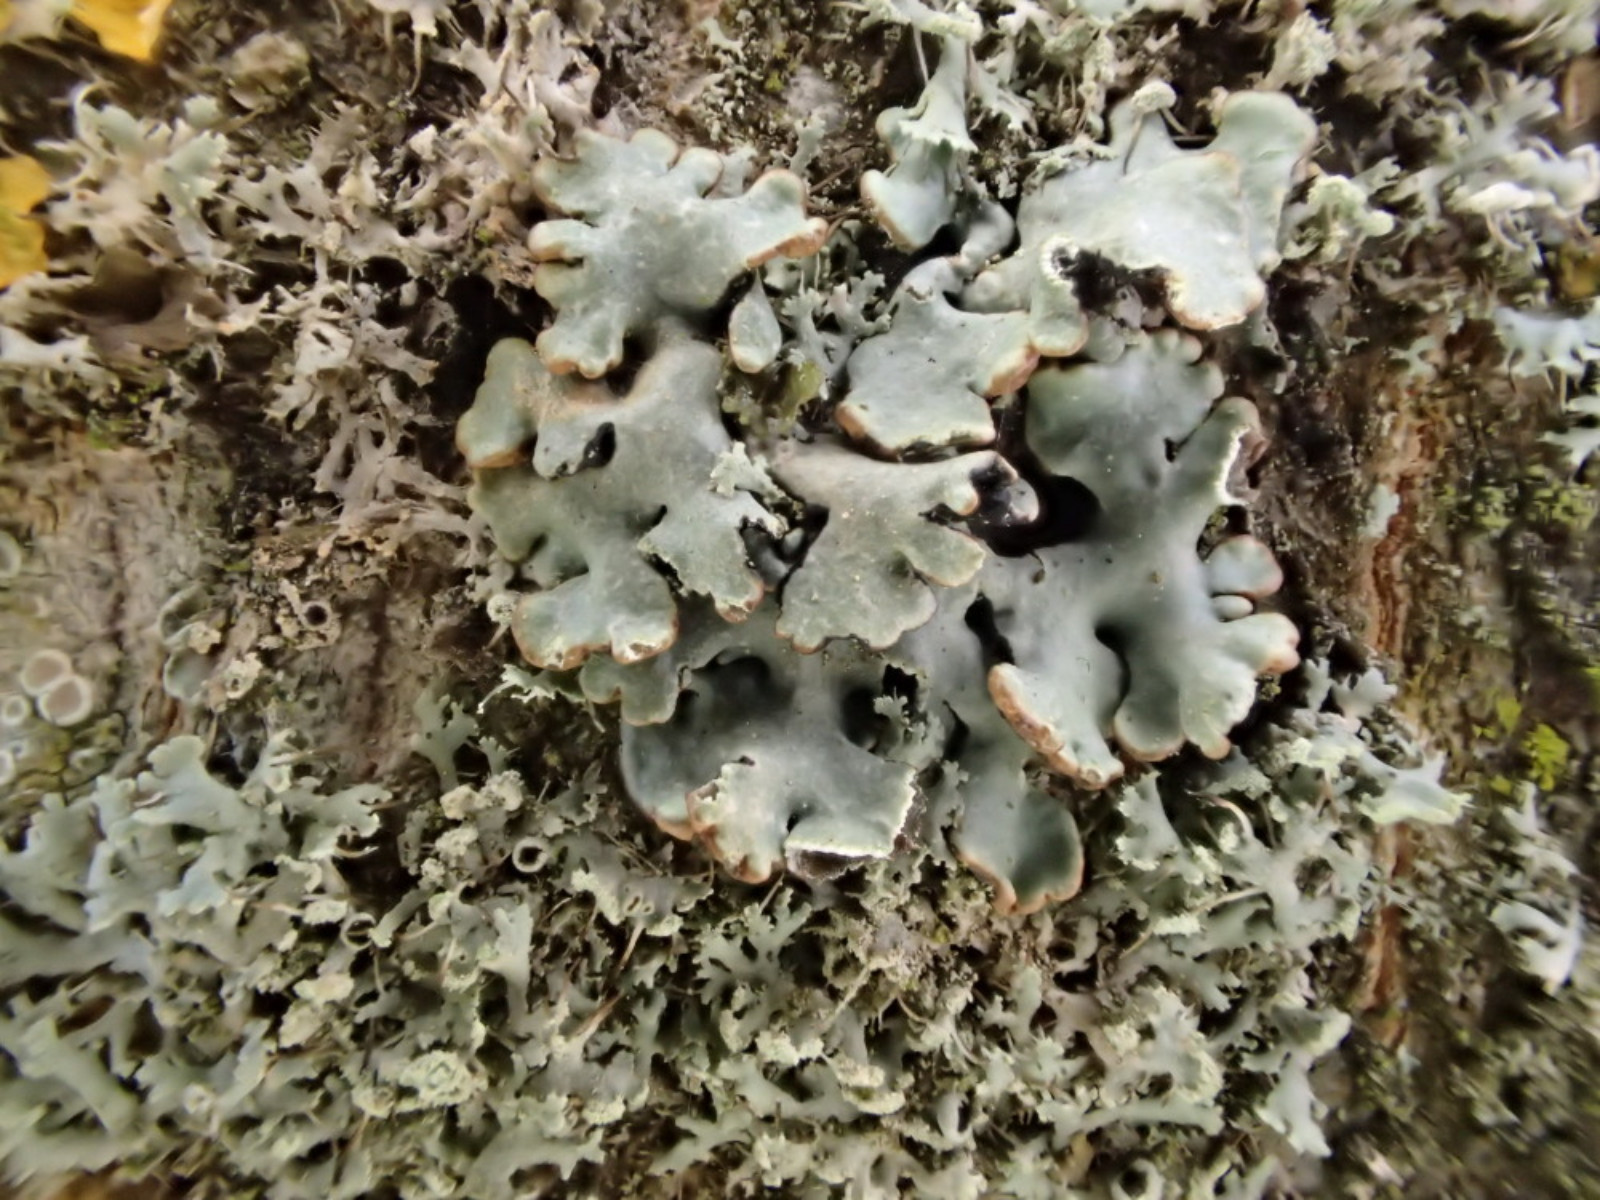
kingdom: Fungi
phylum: Ascomycota
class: Lecanoromycetes
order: Lecanorales
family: Parmeliaceae
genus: Hypogymnia
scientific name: Hypogymnia physodes
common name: almindelig kvistlav
